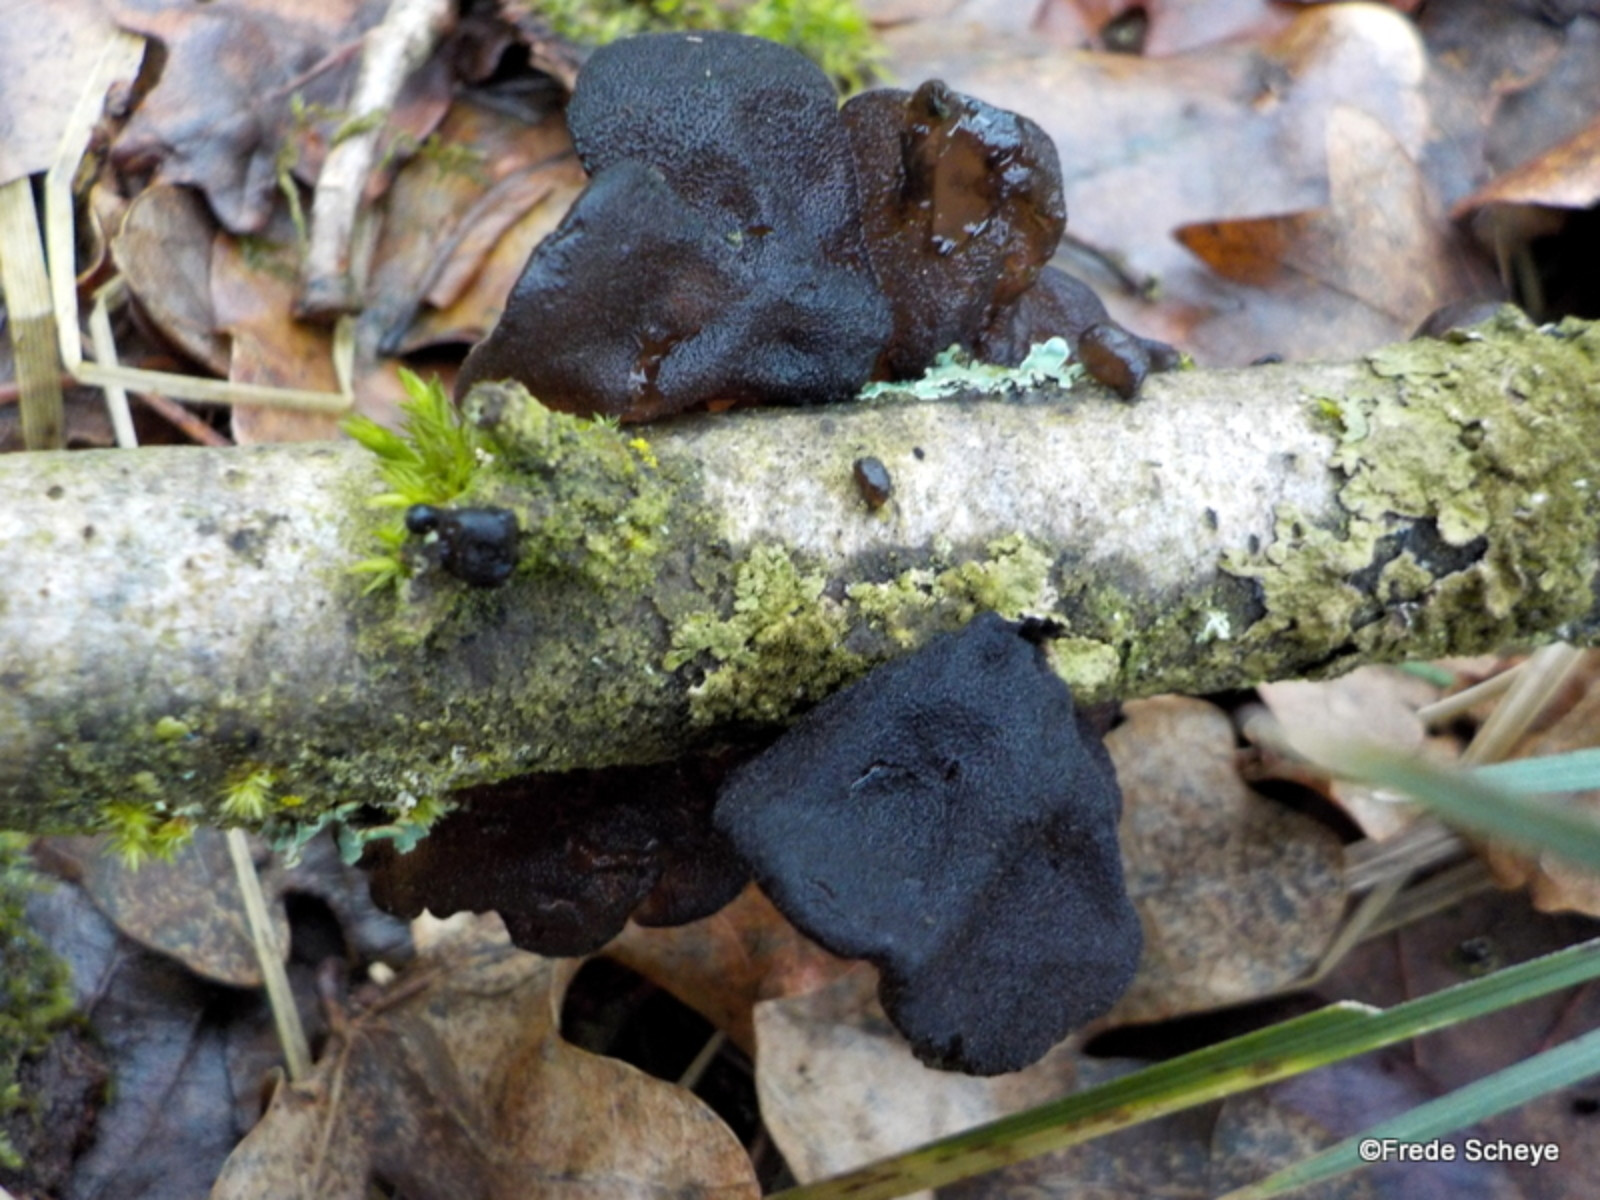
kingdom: Fungi
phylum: Basidiomycota
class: Agaricomycetes
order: Auriculariales
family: Auriculariaceae
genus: Exidia
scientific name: Exidia glandulosa
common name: ege-bævretop
